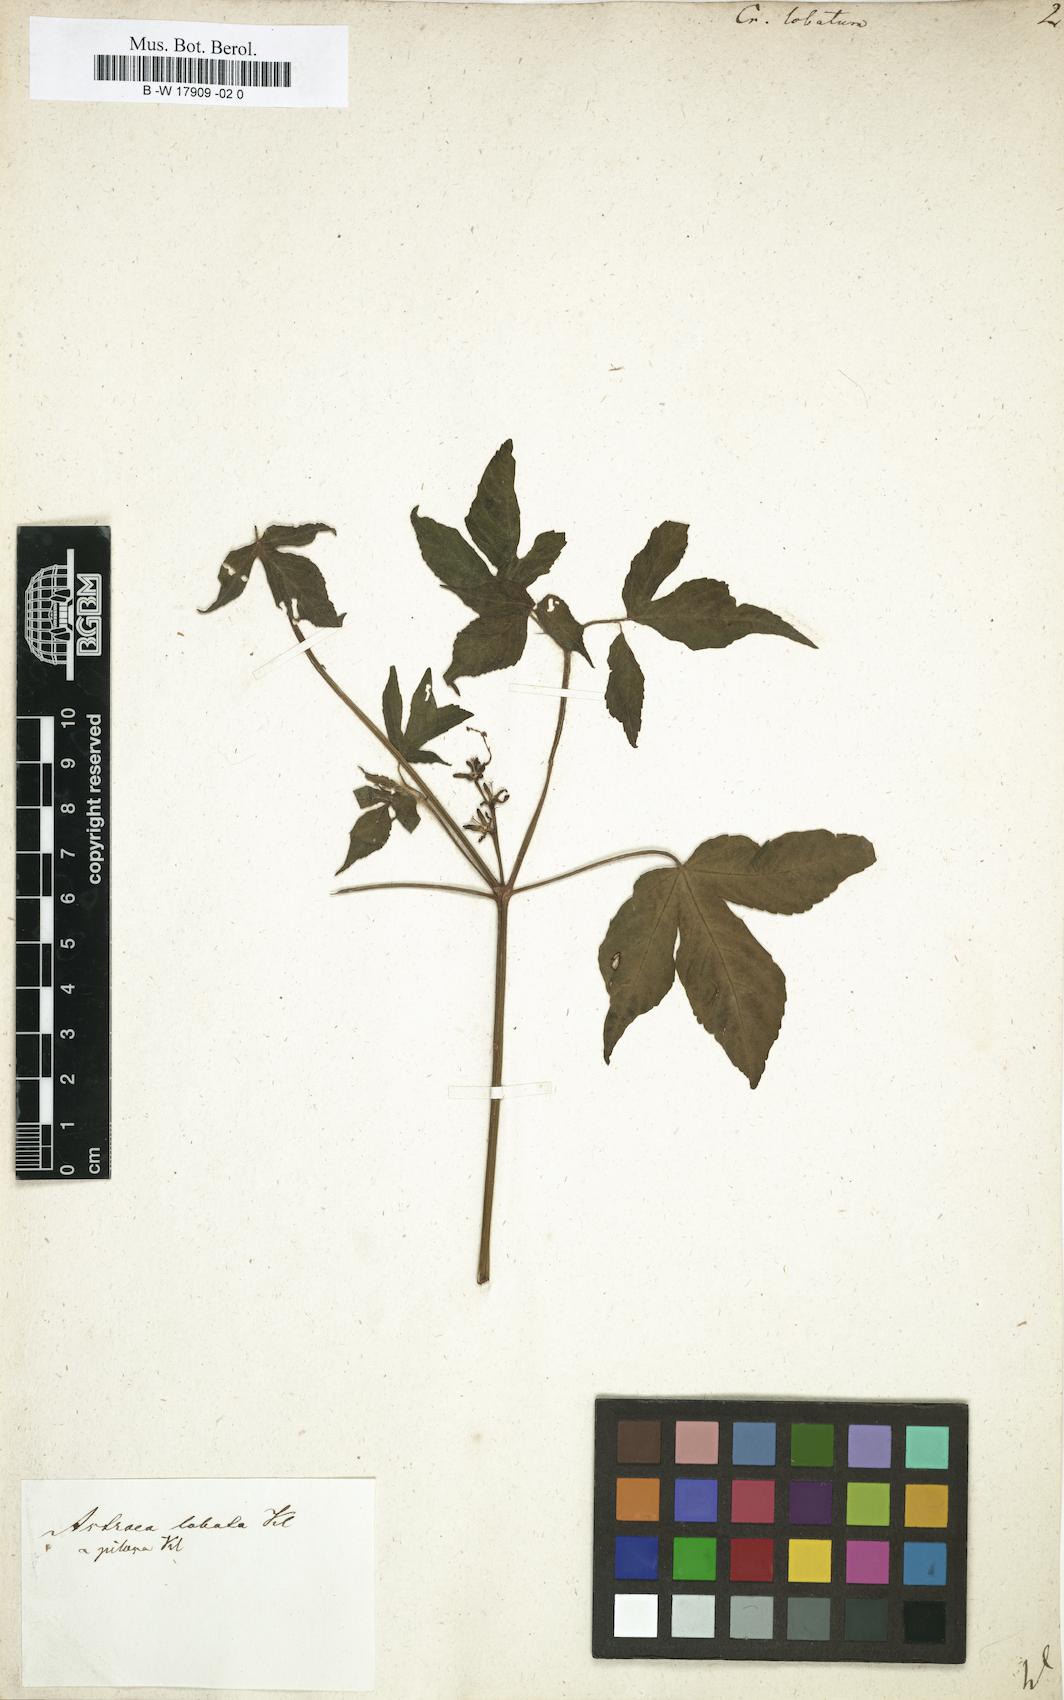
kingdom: Plantae
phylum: Tracheophyta
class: Magnoliopsida
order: Malpighiales
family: Euphorbiaceae
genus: Astraea
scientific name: Astraea lobata
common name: Lobed croton
